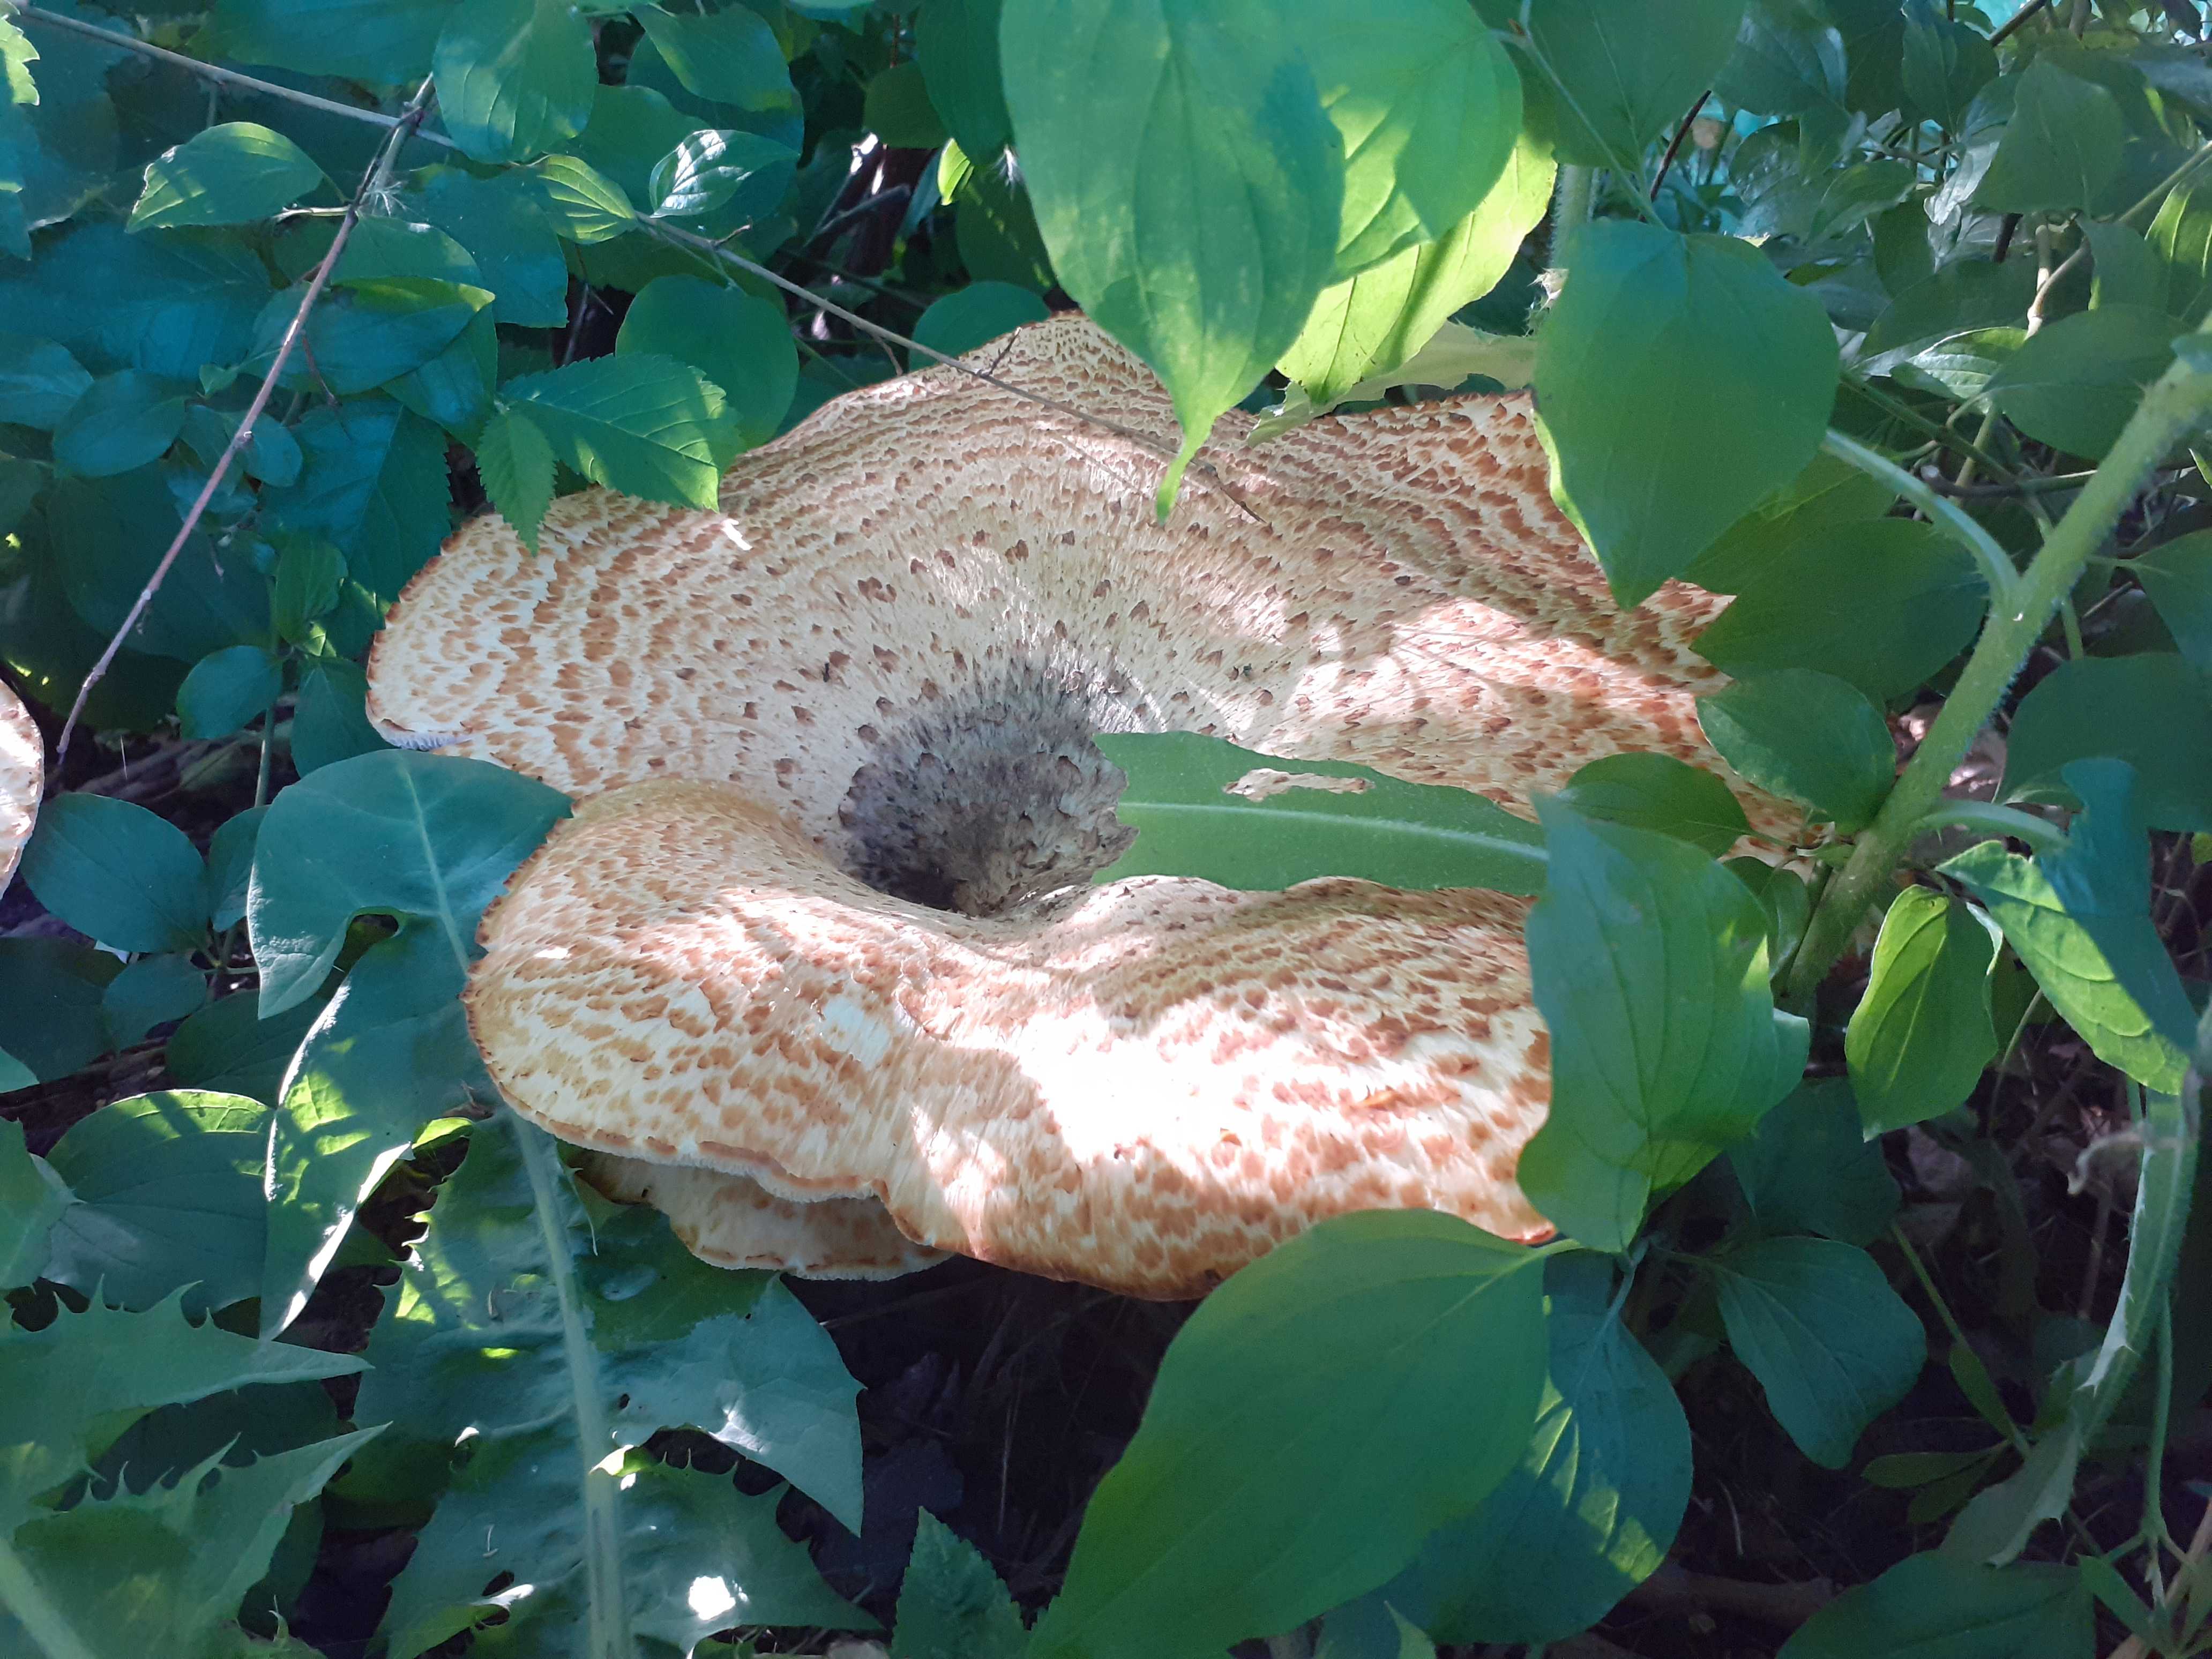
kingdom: Fungi
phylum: Basidiomycota
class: Agaricomycetes
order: Polyporales
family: Polyporaceae
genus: Cerioporus
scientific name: Cerioporus squamosus
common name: skællet stilkporesvamp
